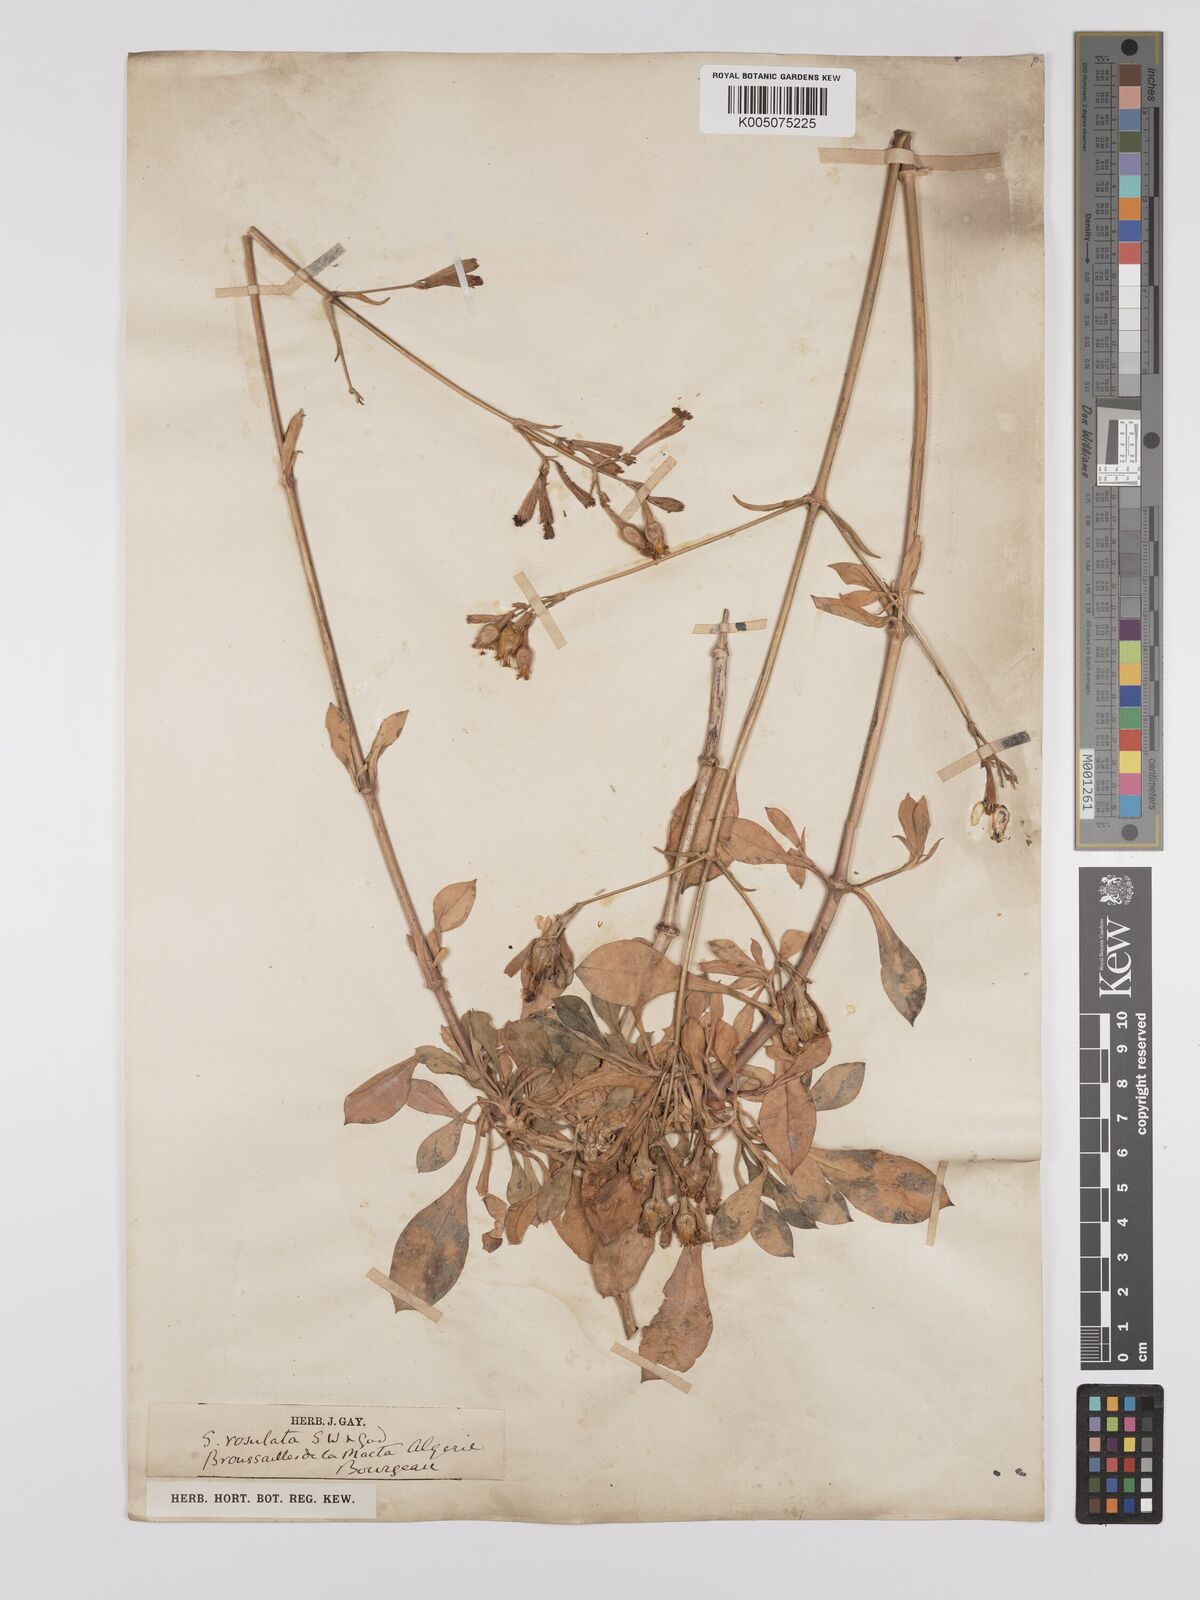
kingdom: Plantae
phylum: Tracheophyta
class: Magnoliopsida
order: Caryophyllales
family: Caryophyllaceae
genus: Silene
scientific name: Silene rosulata
